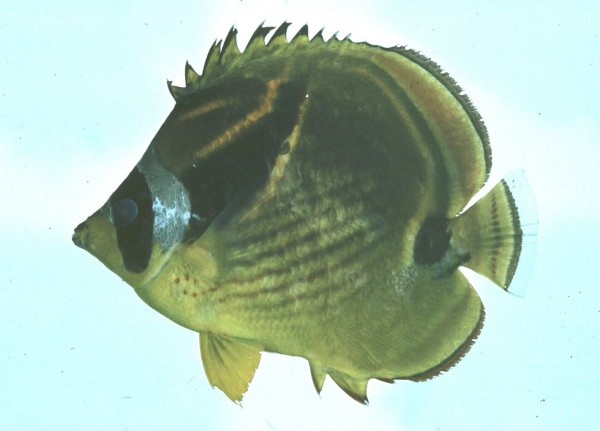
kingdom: Animalia
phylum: Chordata
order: Perciformes
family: Chaetodontidae
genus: Chaetodon
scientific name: Chaetodon lunula
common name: Raccoon butterflyfish
